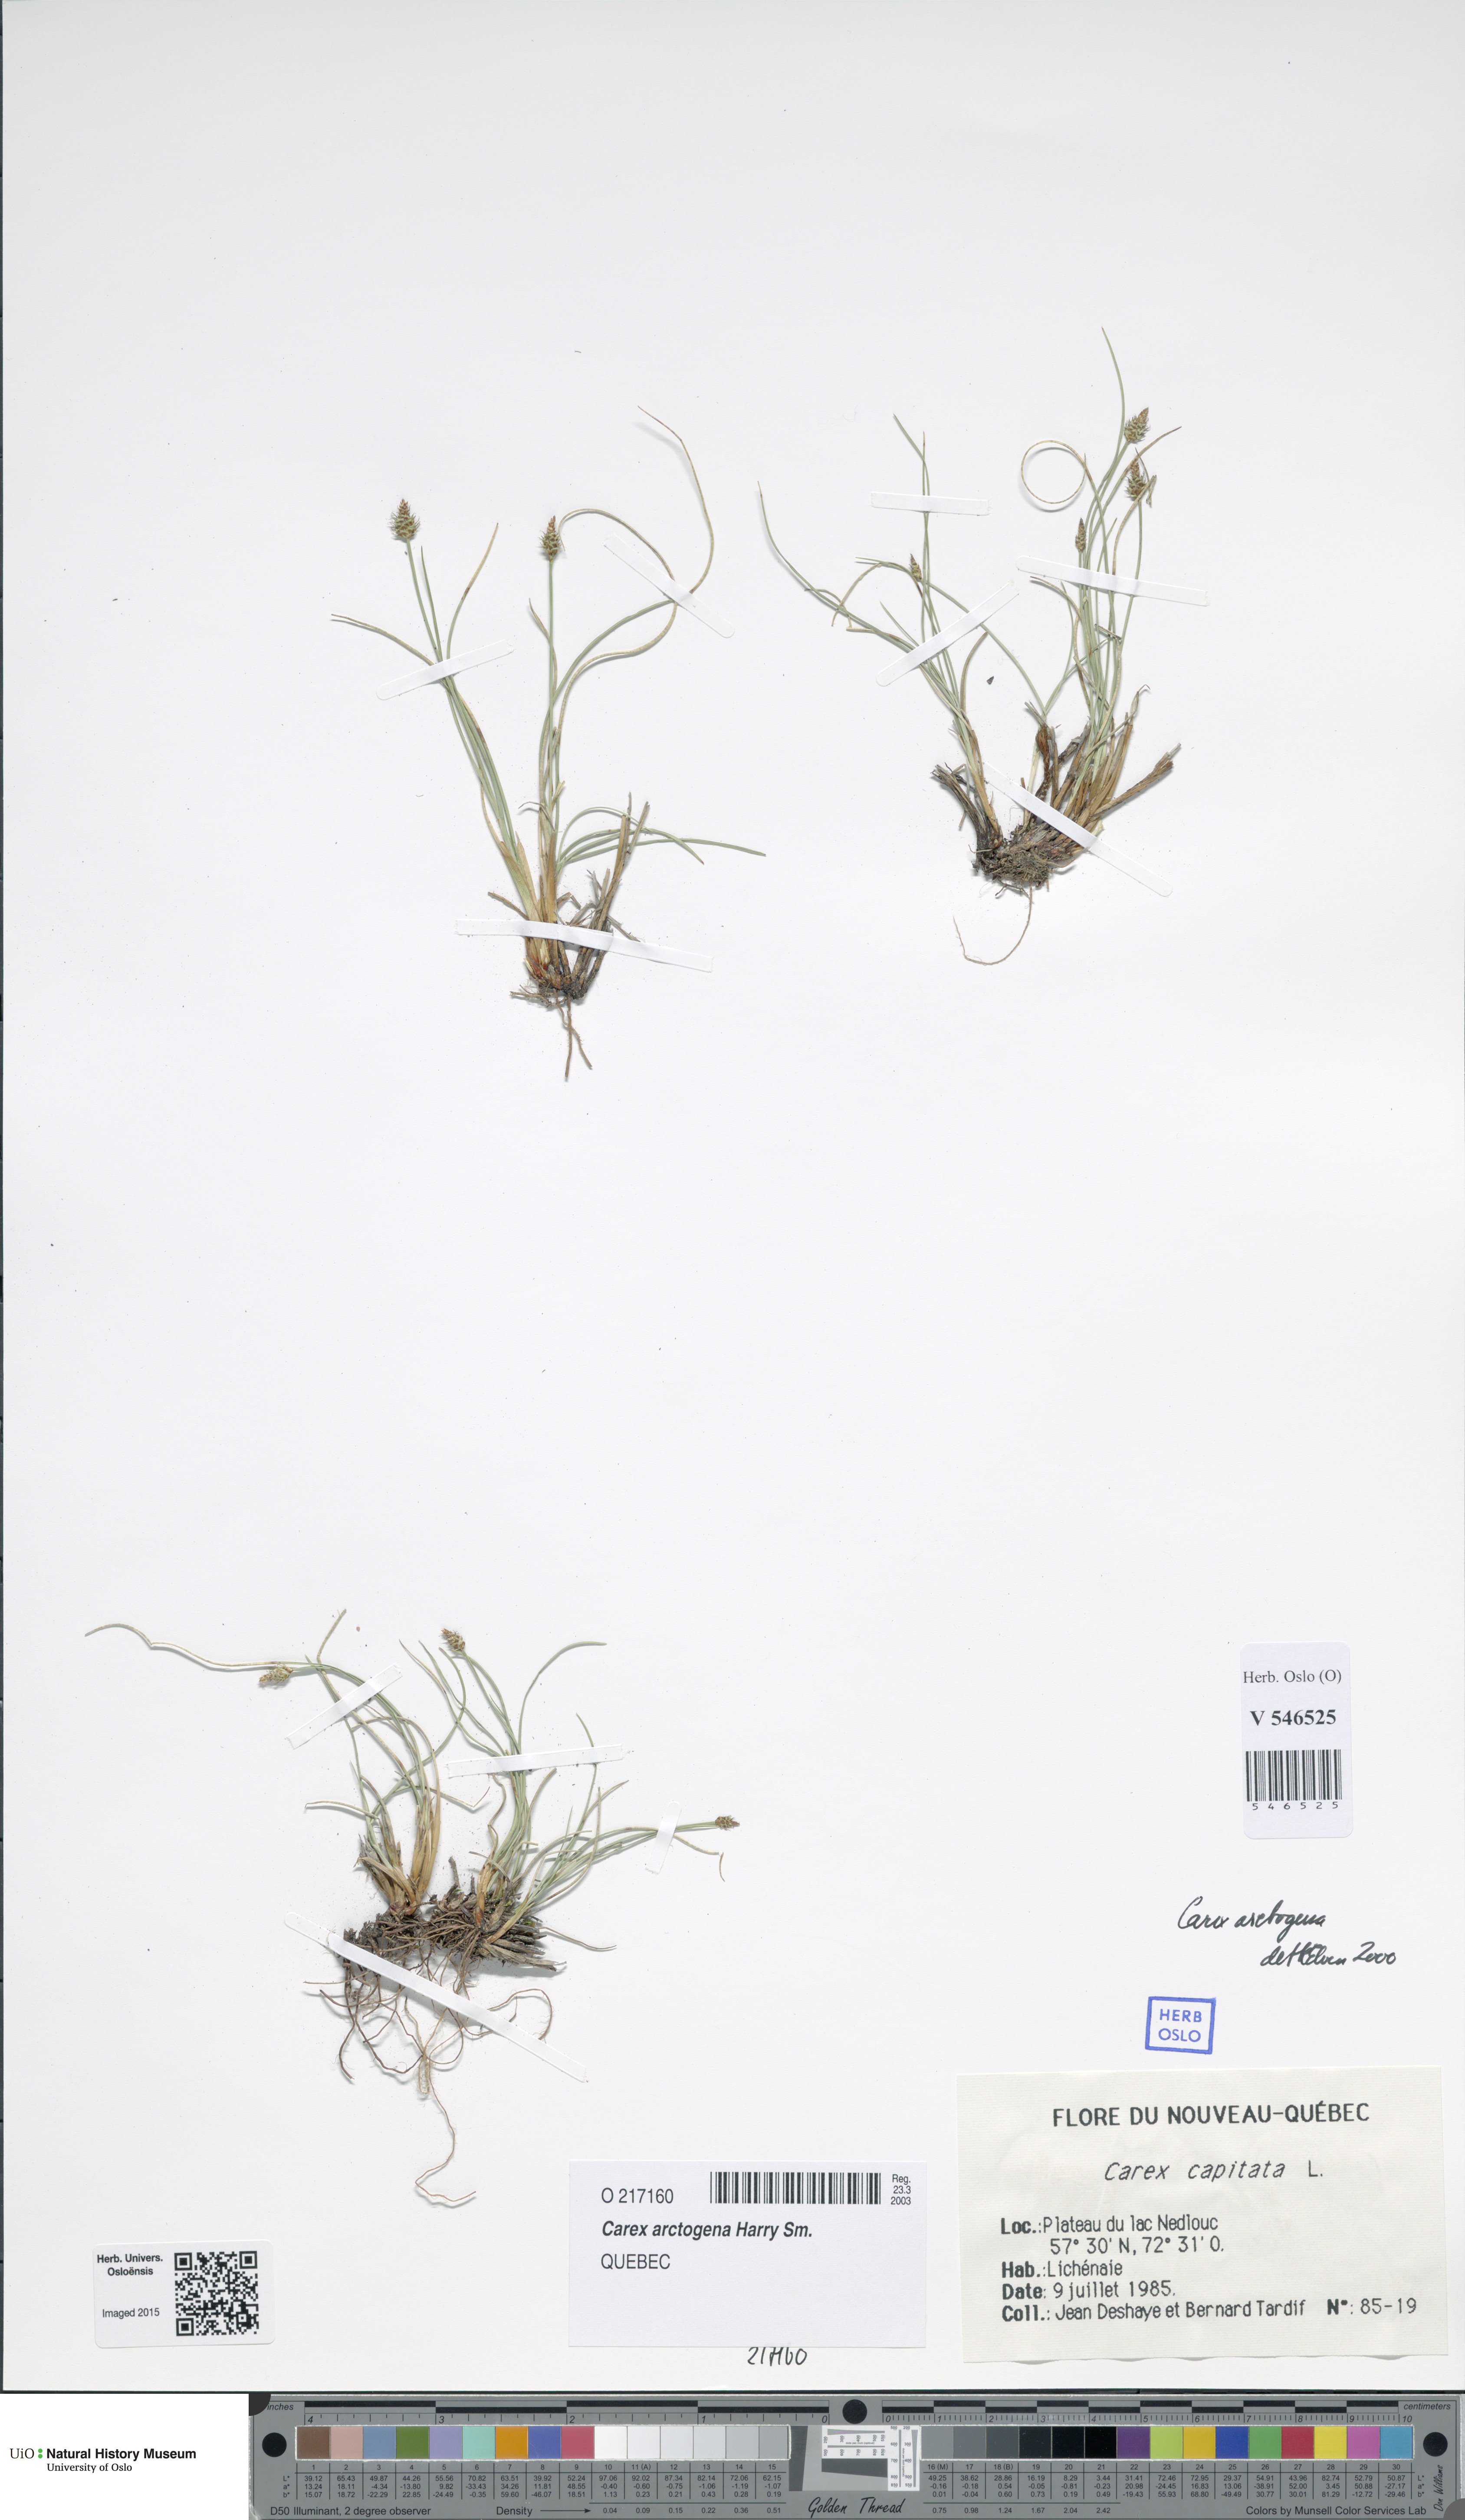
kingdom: Plantae
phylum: Tracheophyta
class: Liliopsida
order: Poales
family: Cyperaceae
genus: Carex
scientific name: Carex arctogena
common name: Black sedge
